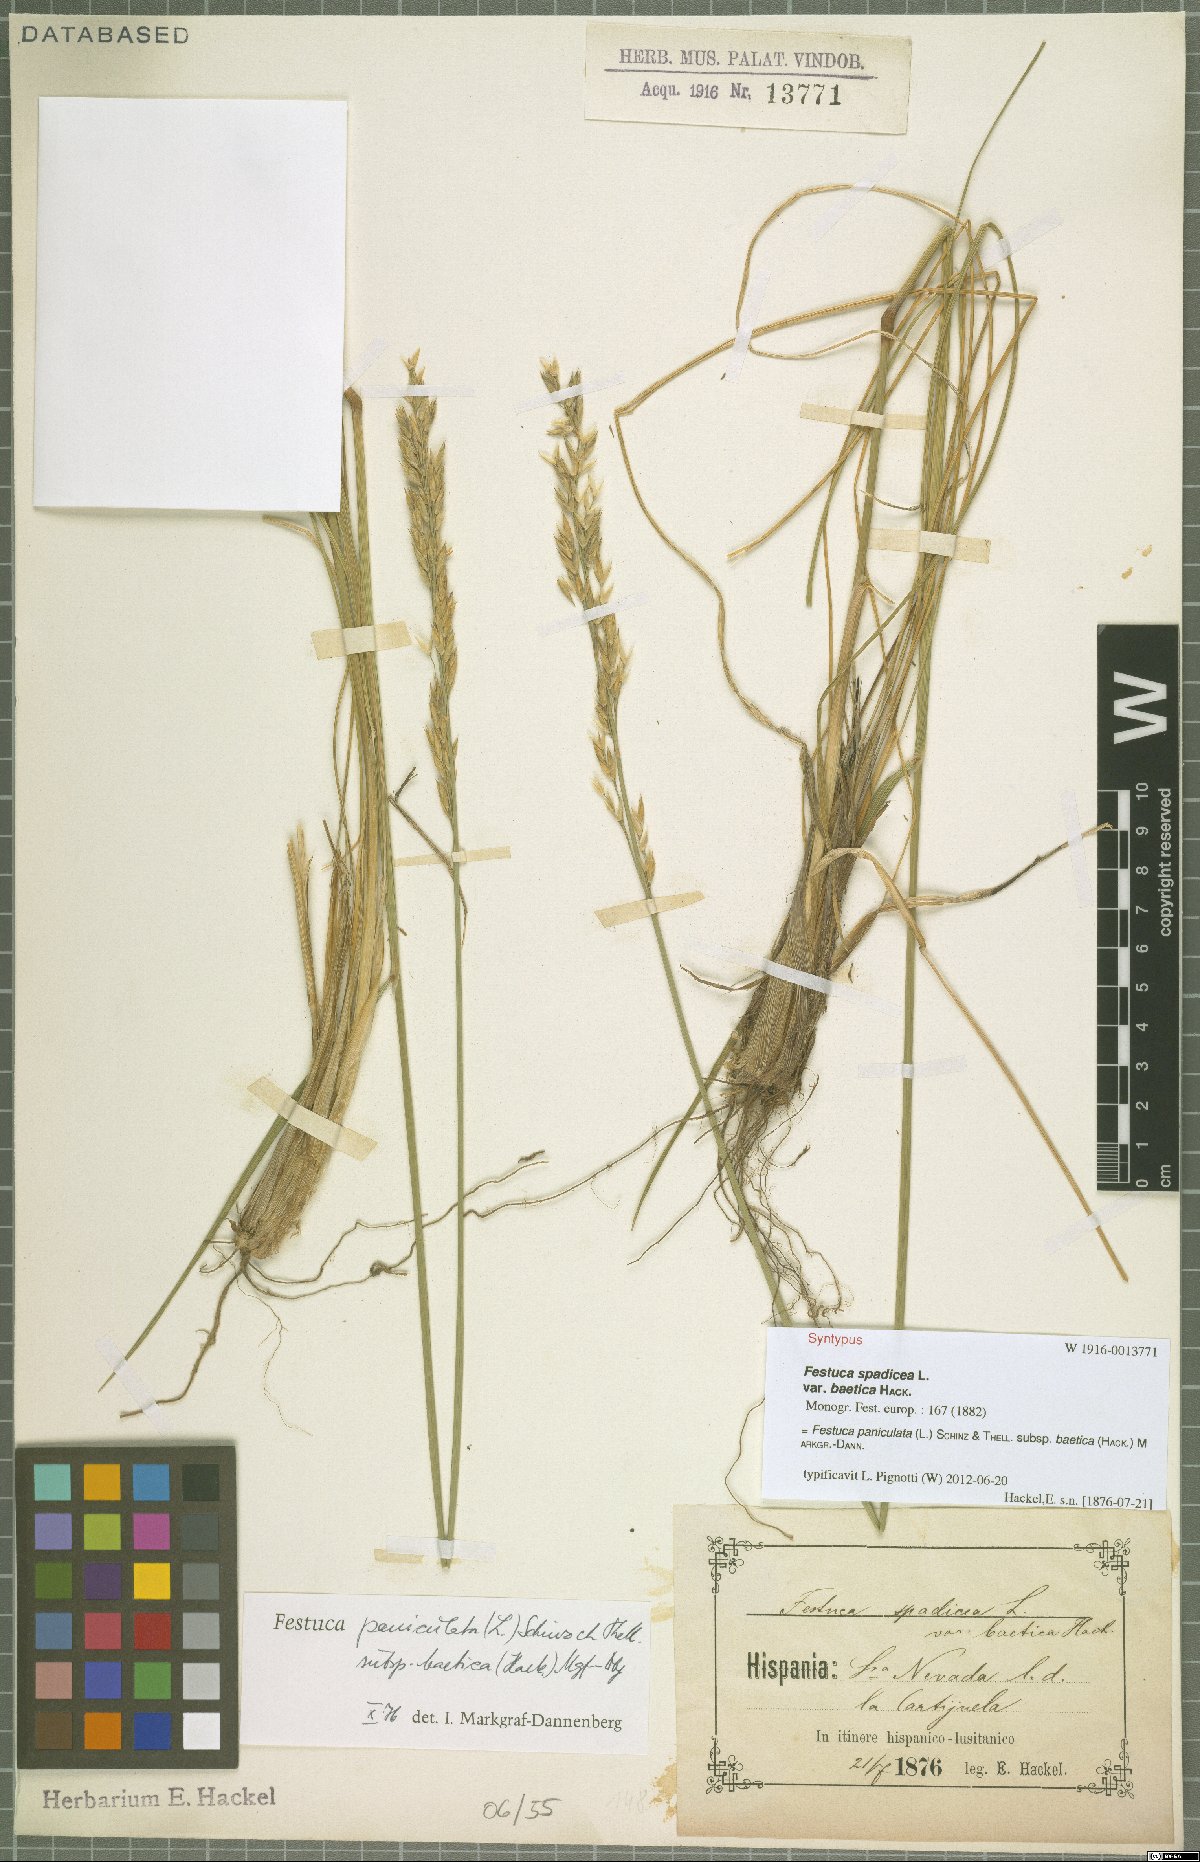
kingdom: Plantae
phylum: Tracheophyta
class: Liliopsida
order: Poales
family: Poaceae
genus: Patzkea
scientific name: Patzkea paniculata
